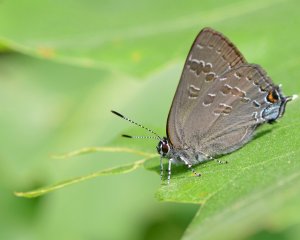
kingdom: Animalia
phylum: Arthropoda
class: Insecta
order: Lepidoptera
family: Lycaenidae
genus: Strymon
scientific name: Strymon caryaevorus
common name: Hickory Hairstreak
